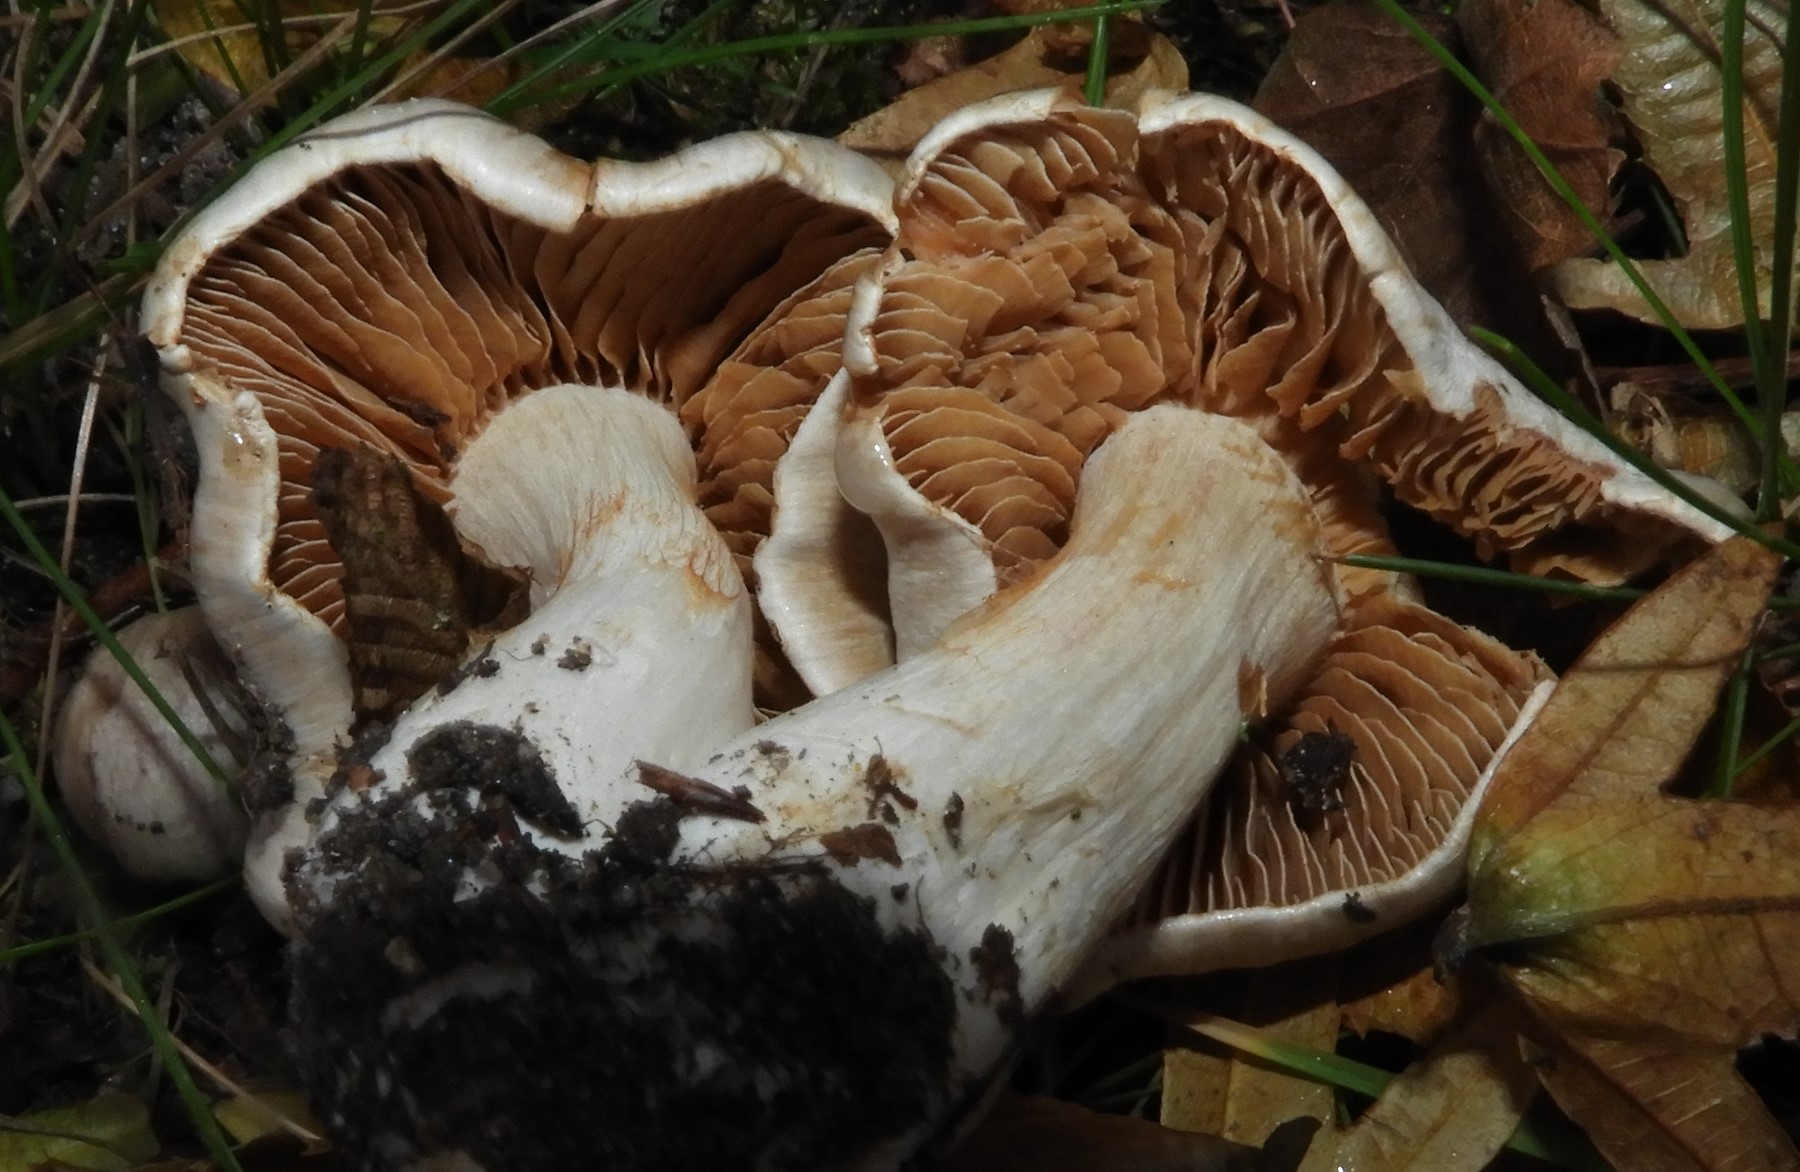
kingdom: Fungi
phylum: Basidiomycota
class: Agaricomycetes
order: Agaricales
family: Cortinariaceae
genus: Cortinarius
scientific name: Cortinarius
